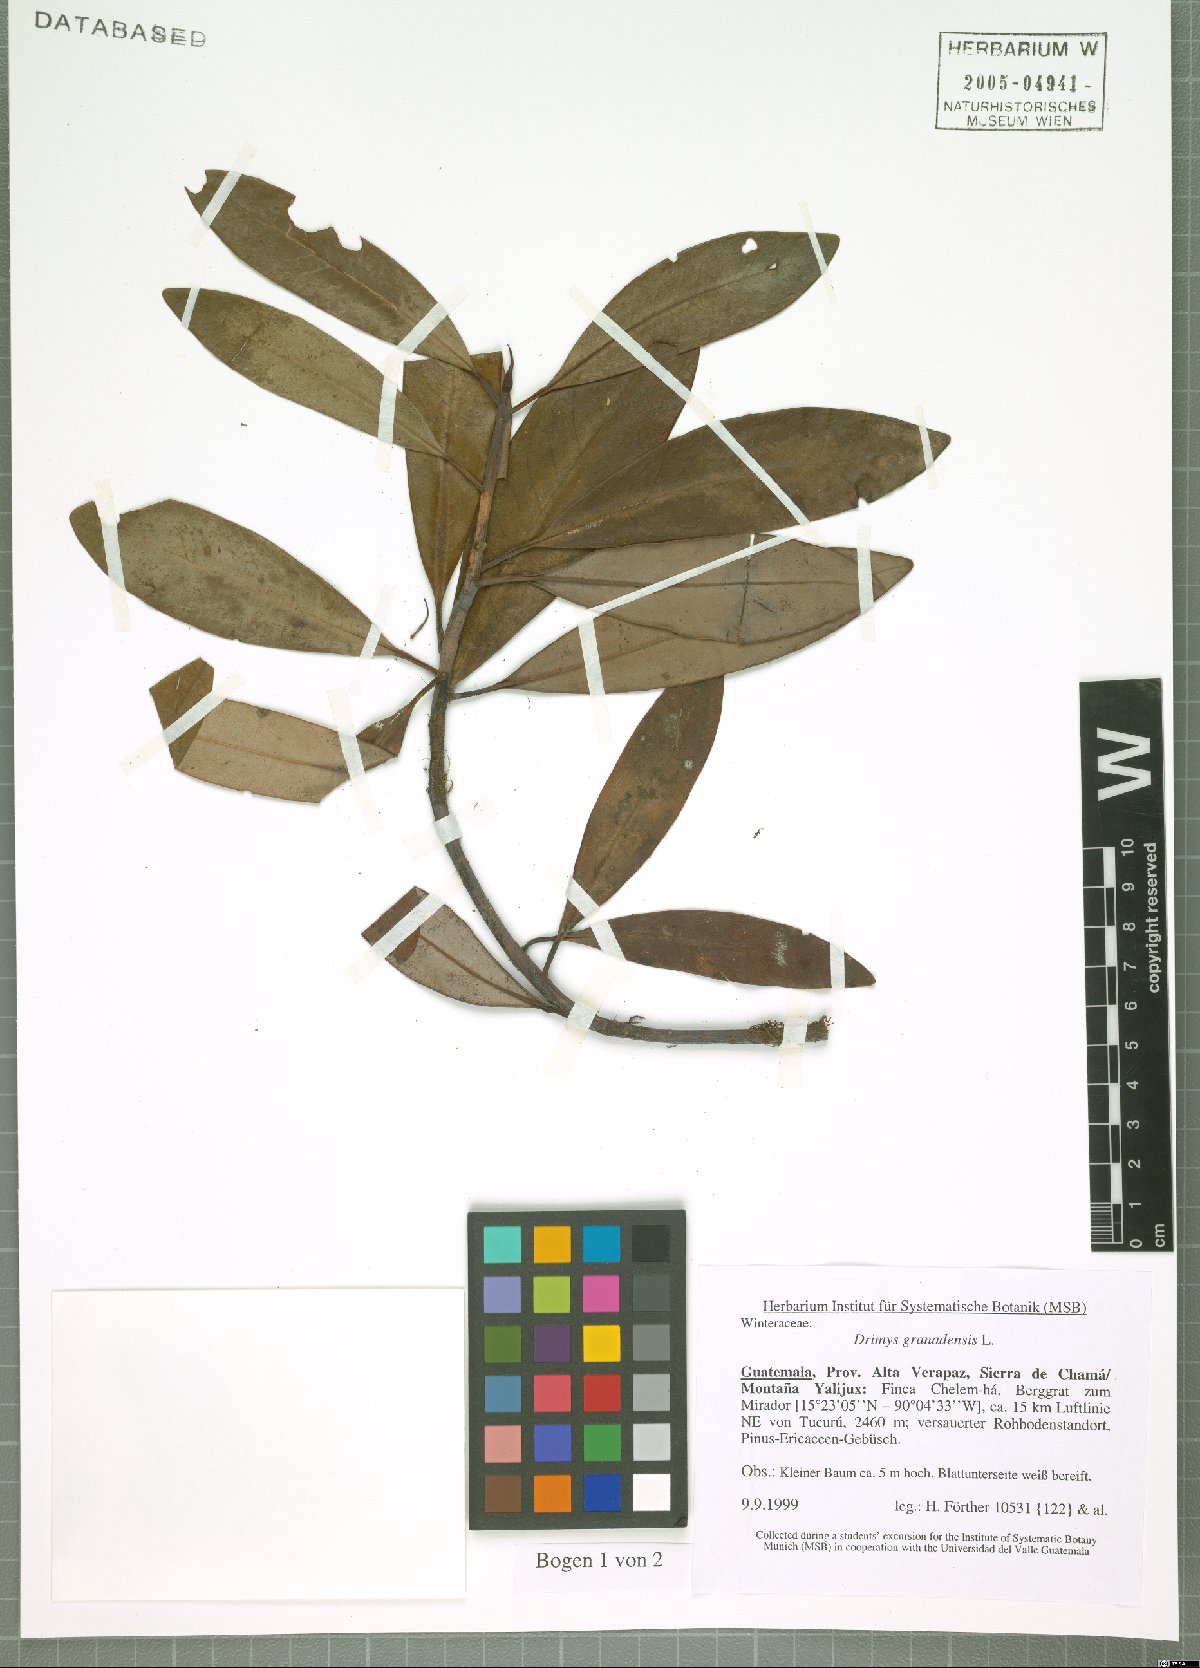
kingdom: Plantae
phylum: Tracheophyta
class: Magnoliopsida
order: Canellales
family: Winteraceae
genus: Drimys
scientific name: Drimys granadensis
